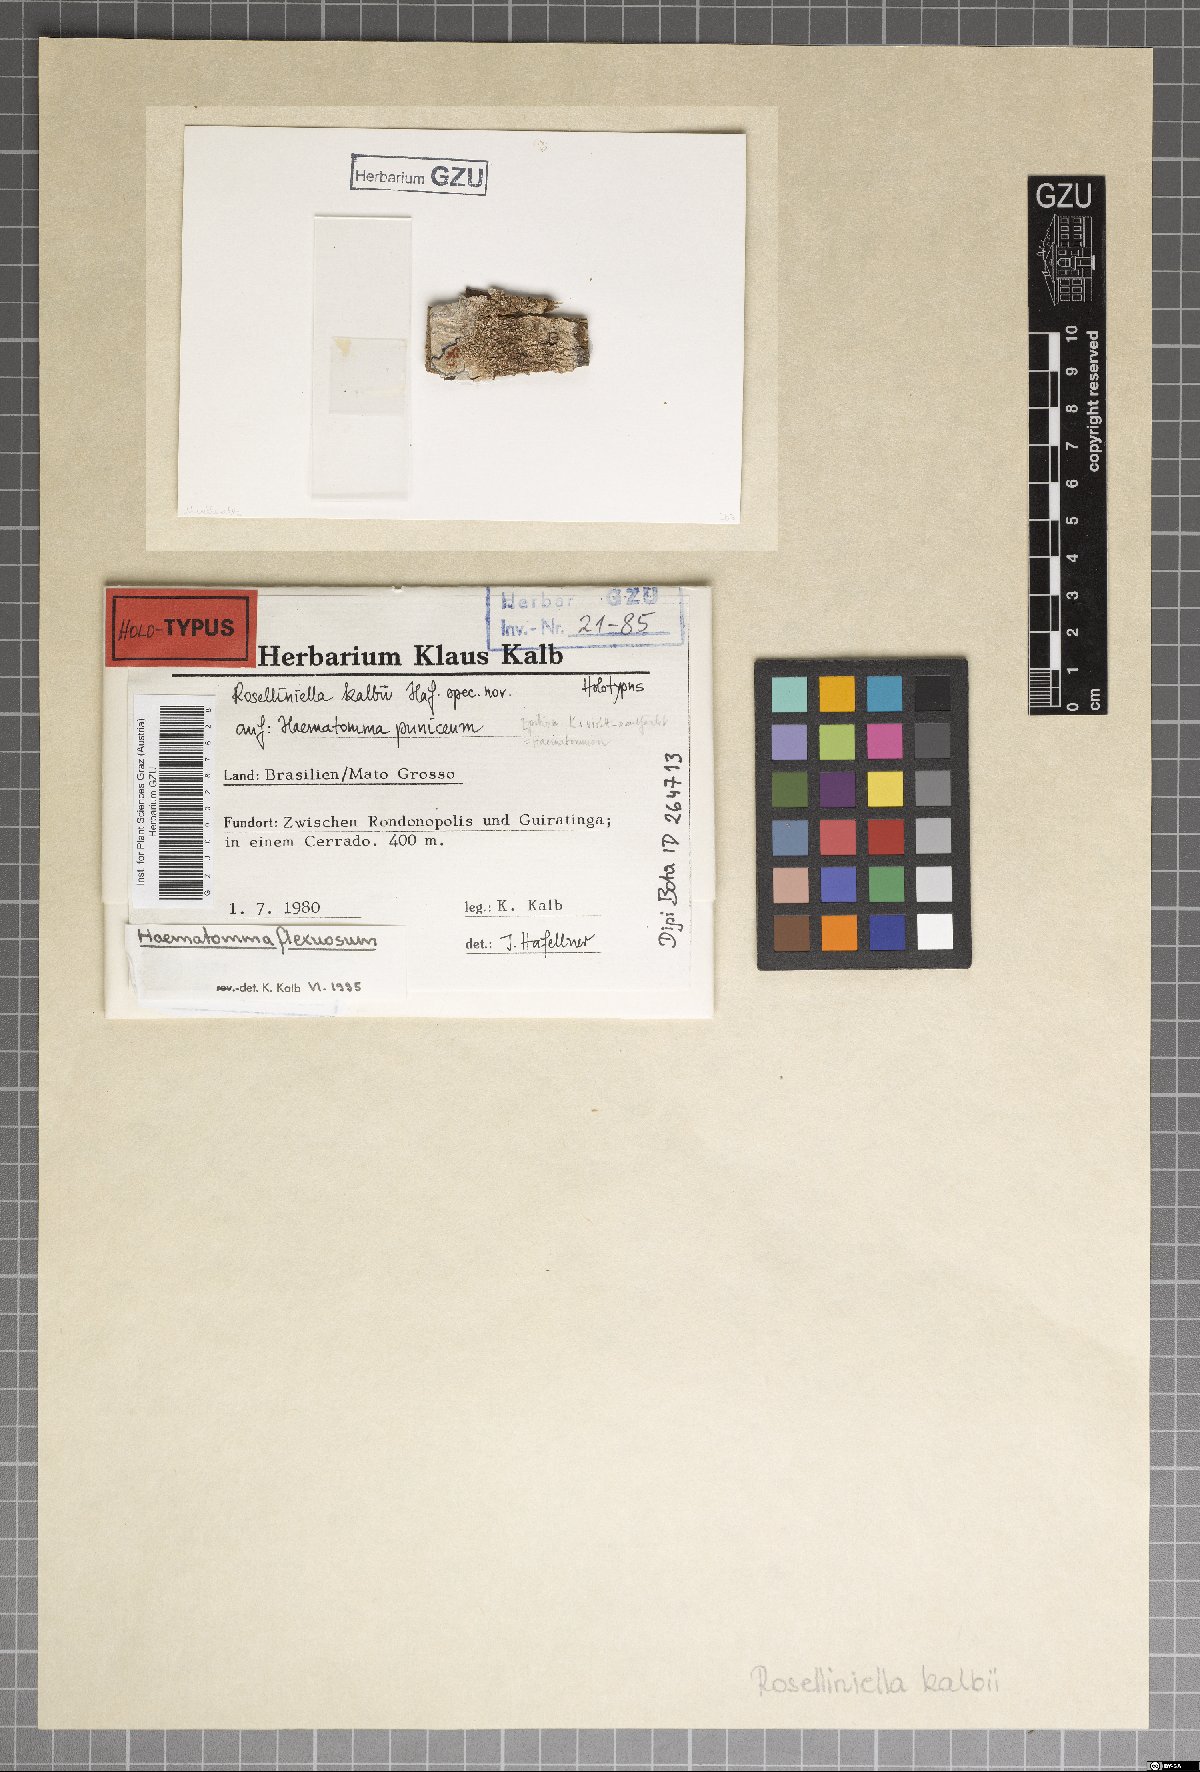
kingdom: Fungi
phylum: Ascomycota
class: Dothideomycetes
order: Dothideales
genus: Rosellinula
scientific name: Rosellinula kalbii
